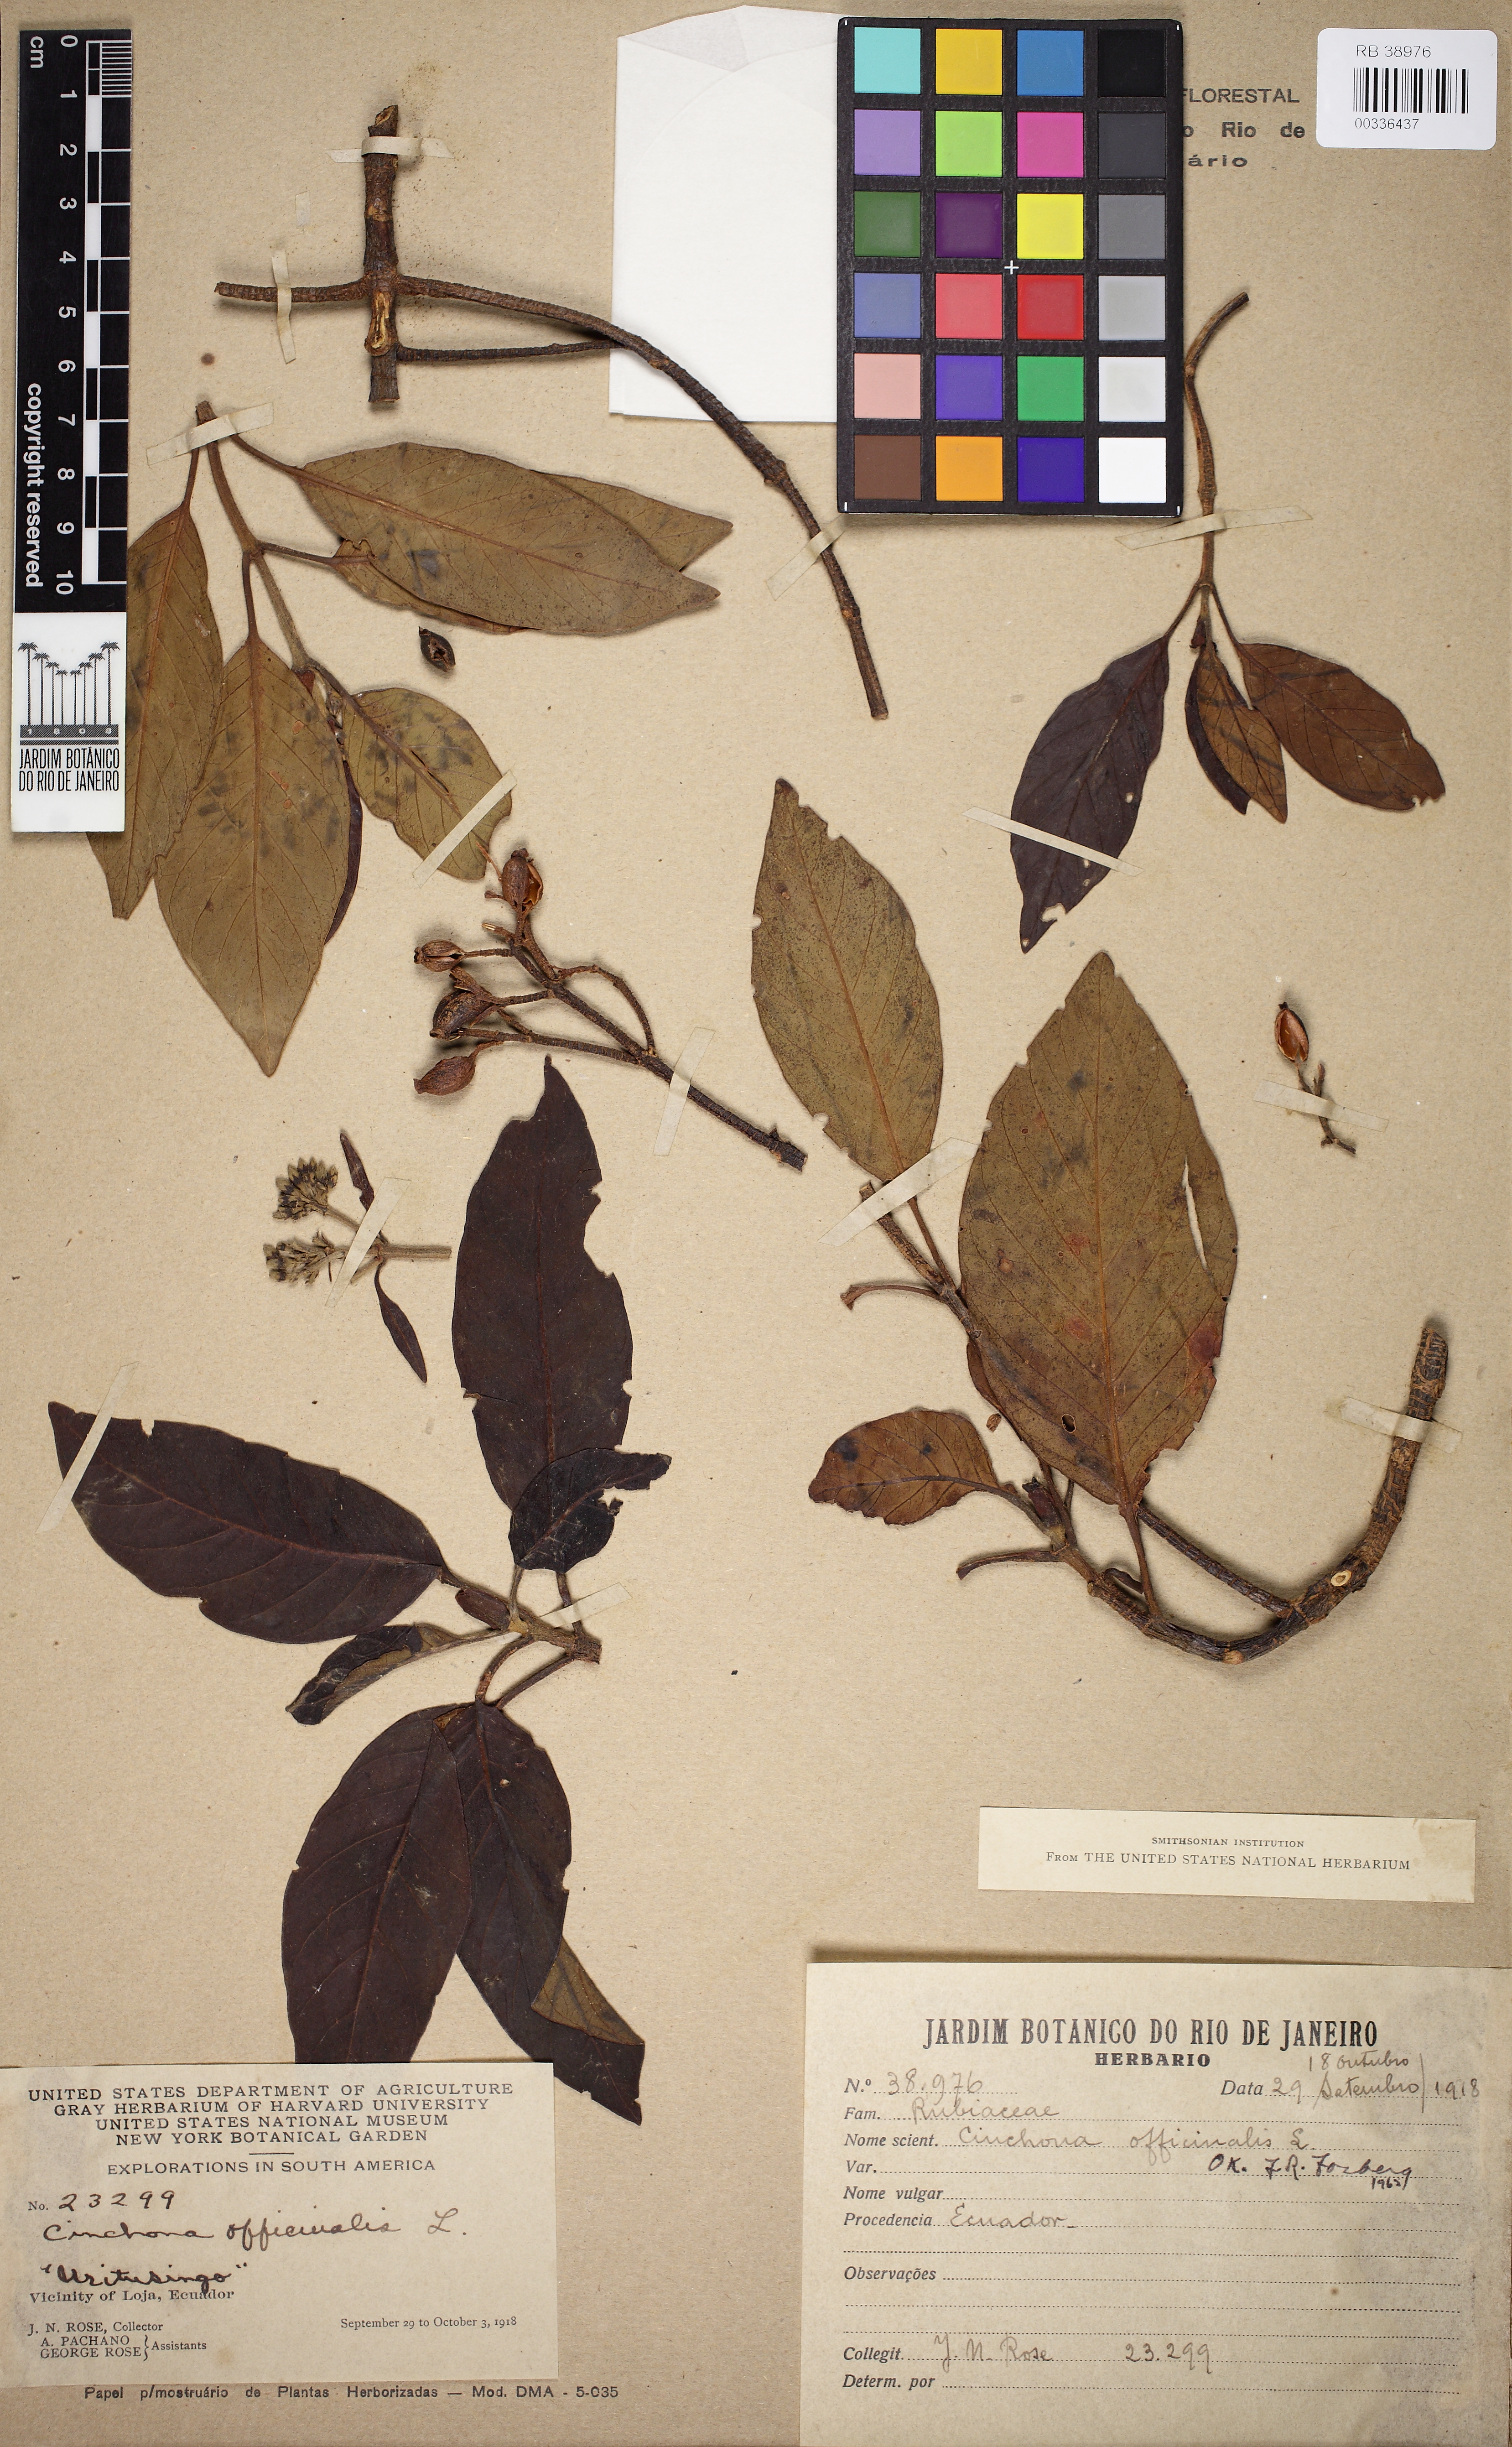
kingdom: Plantae
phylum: Tracheophyta
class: Magnoliopsida
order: Gentianales
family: Rubiaceae
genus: Cinchona
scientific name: Cinchona officinalis
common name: Lojabark
